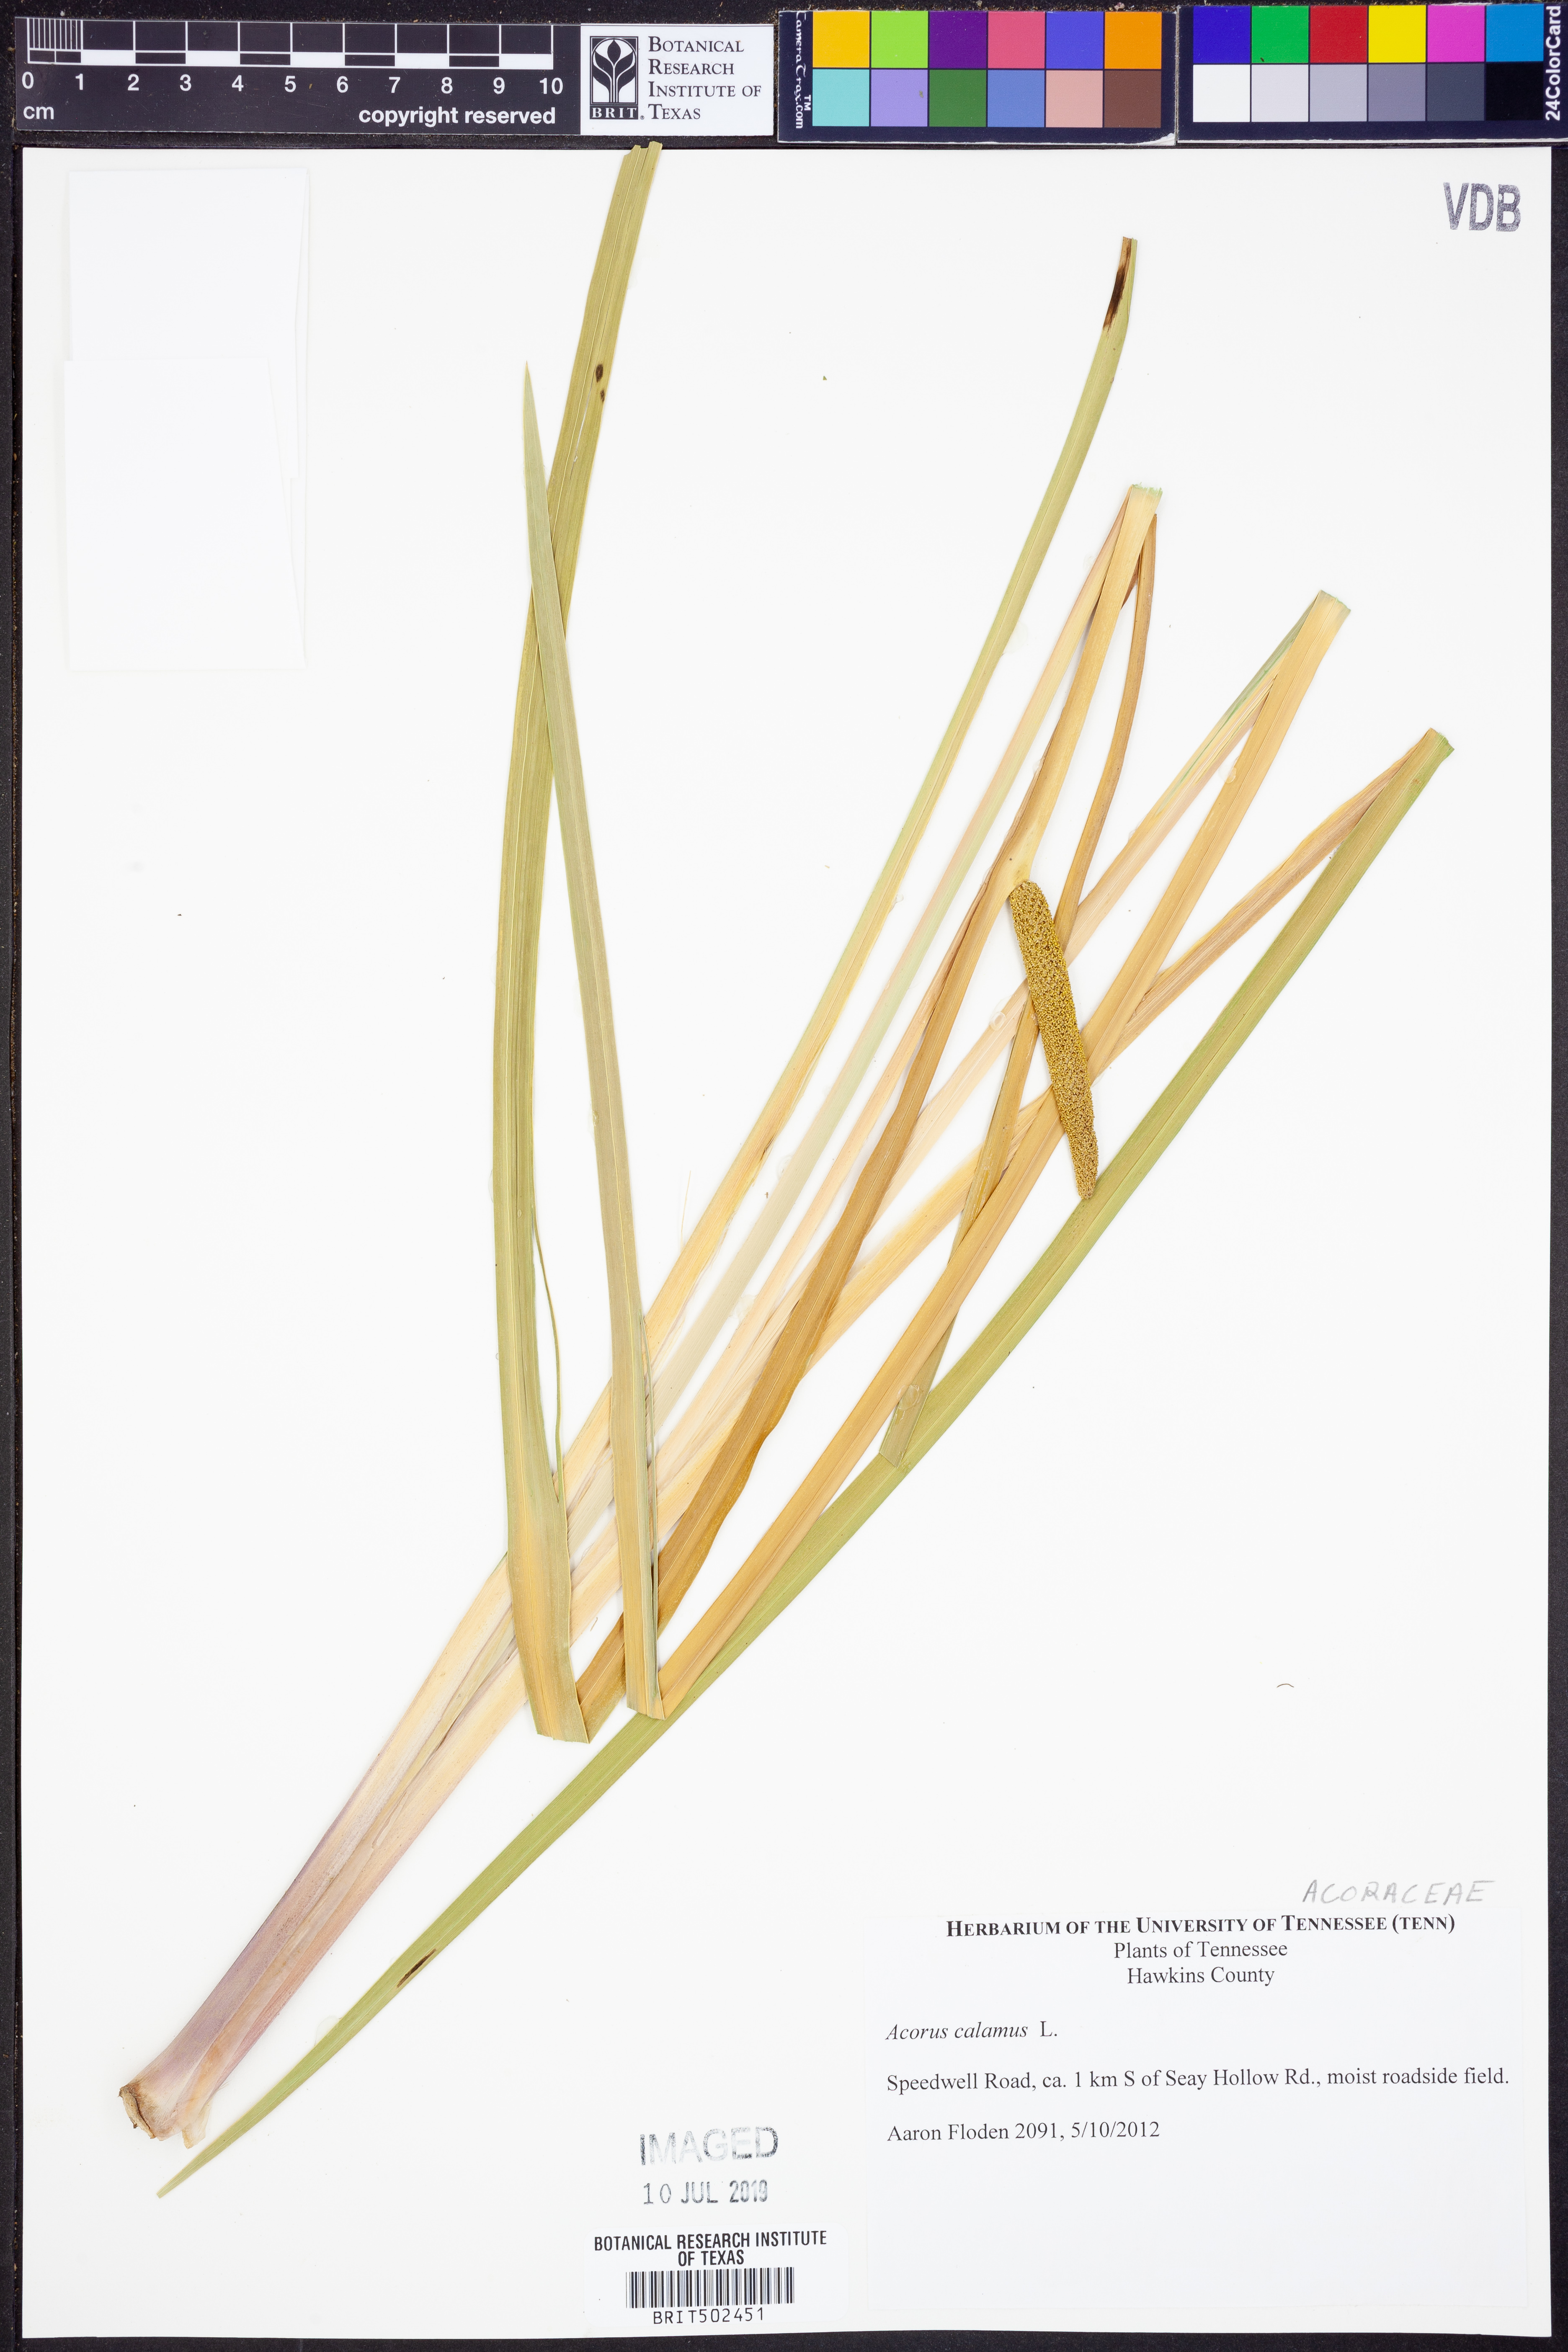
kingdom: Plantae
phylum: Tracheophyta
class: Liliopsida
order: Acorales
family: Acoraceae
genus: Acorus
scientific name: Acorus calamus
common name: Sweet-flag
